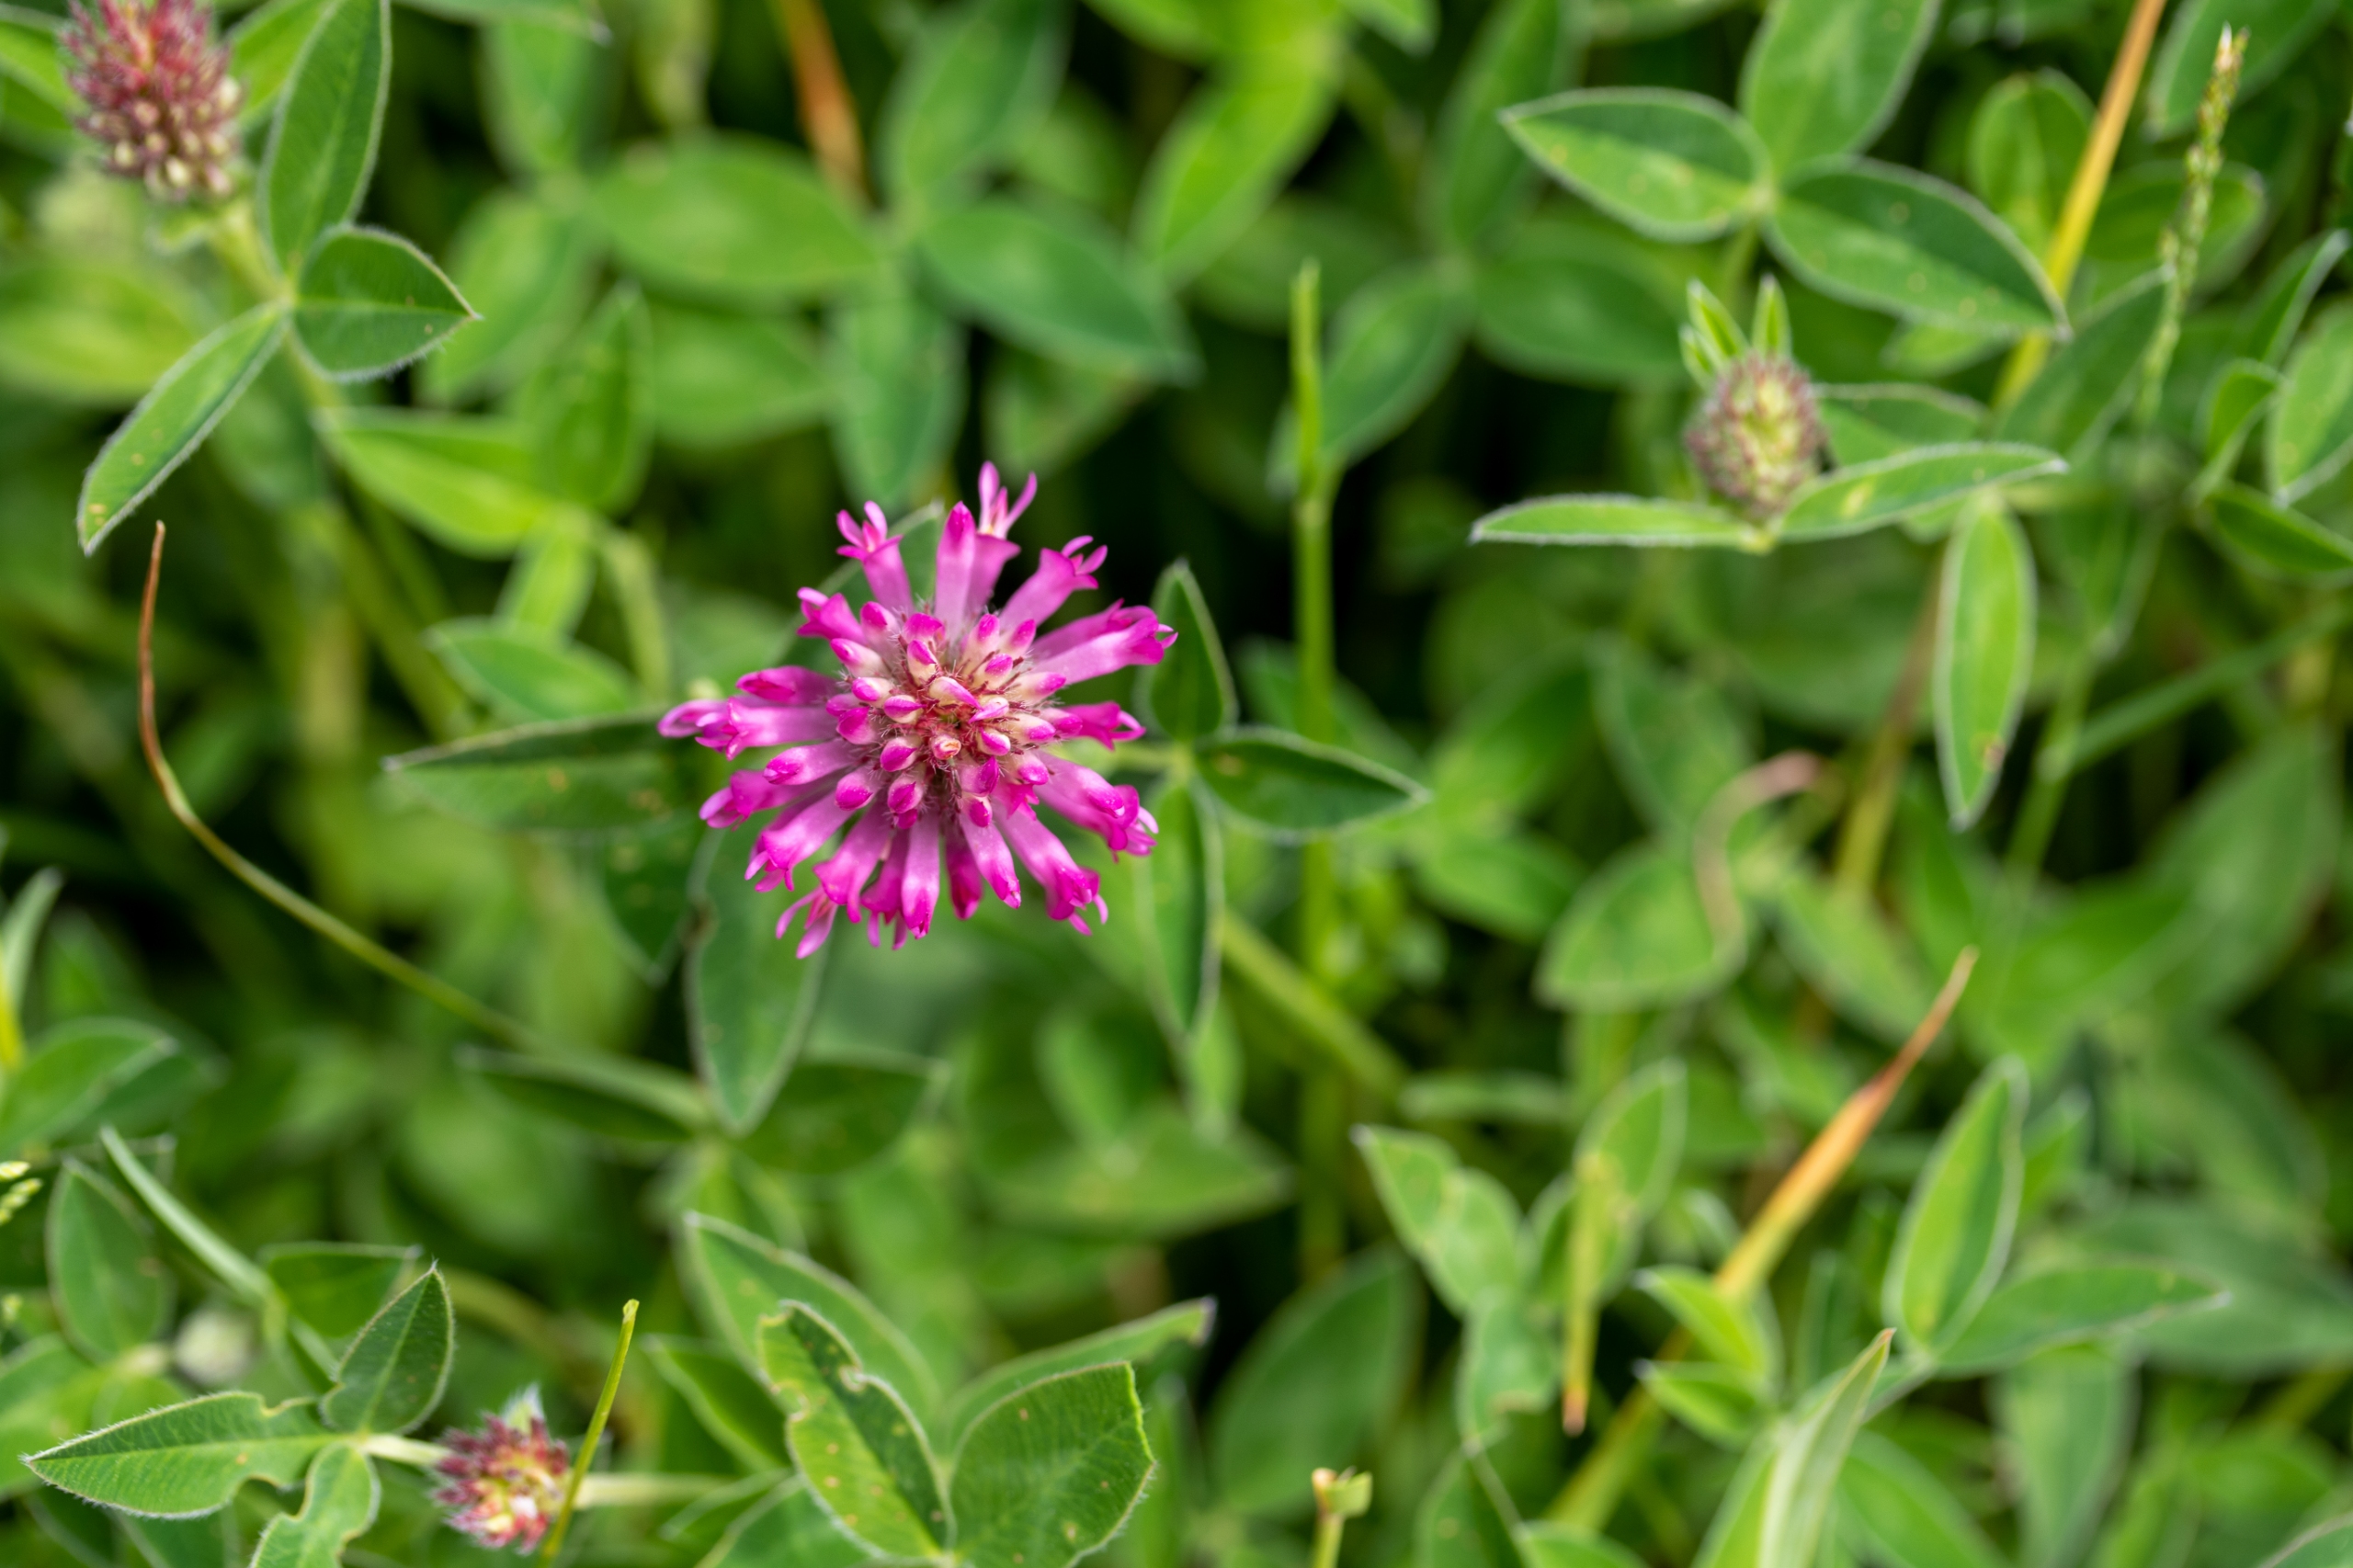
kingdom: Plantae
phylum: Tracheophyta
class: Magnoliopsida
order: Fabales
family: Fabaceae
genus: Trifolium
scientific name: Trifolium medium
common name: Bugtet kløver
